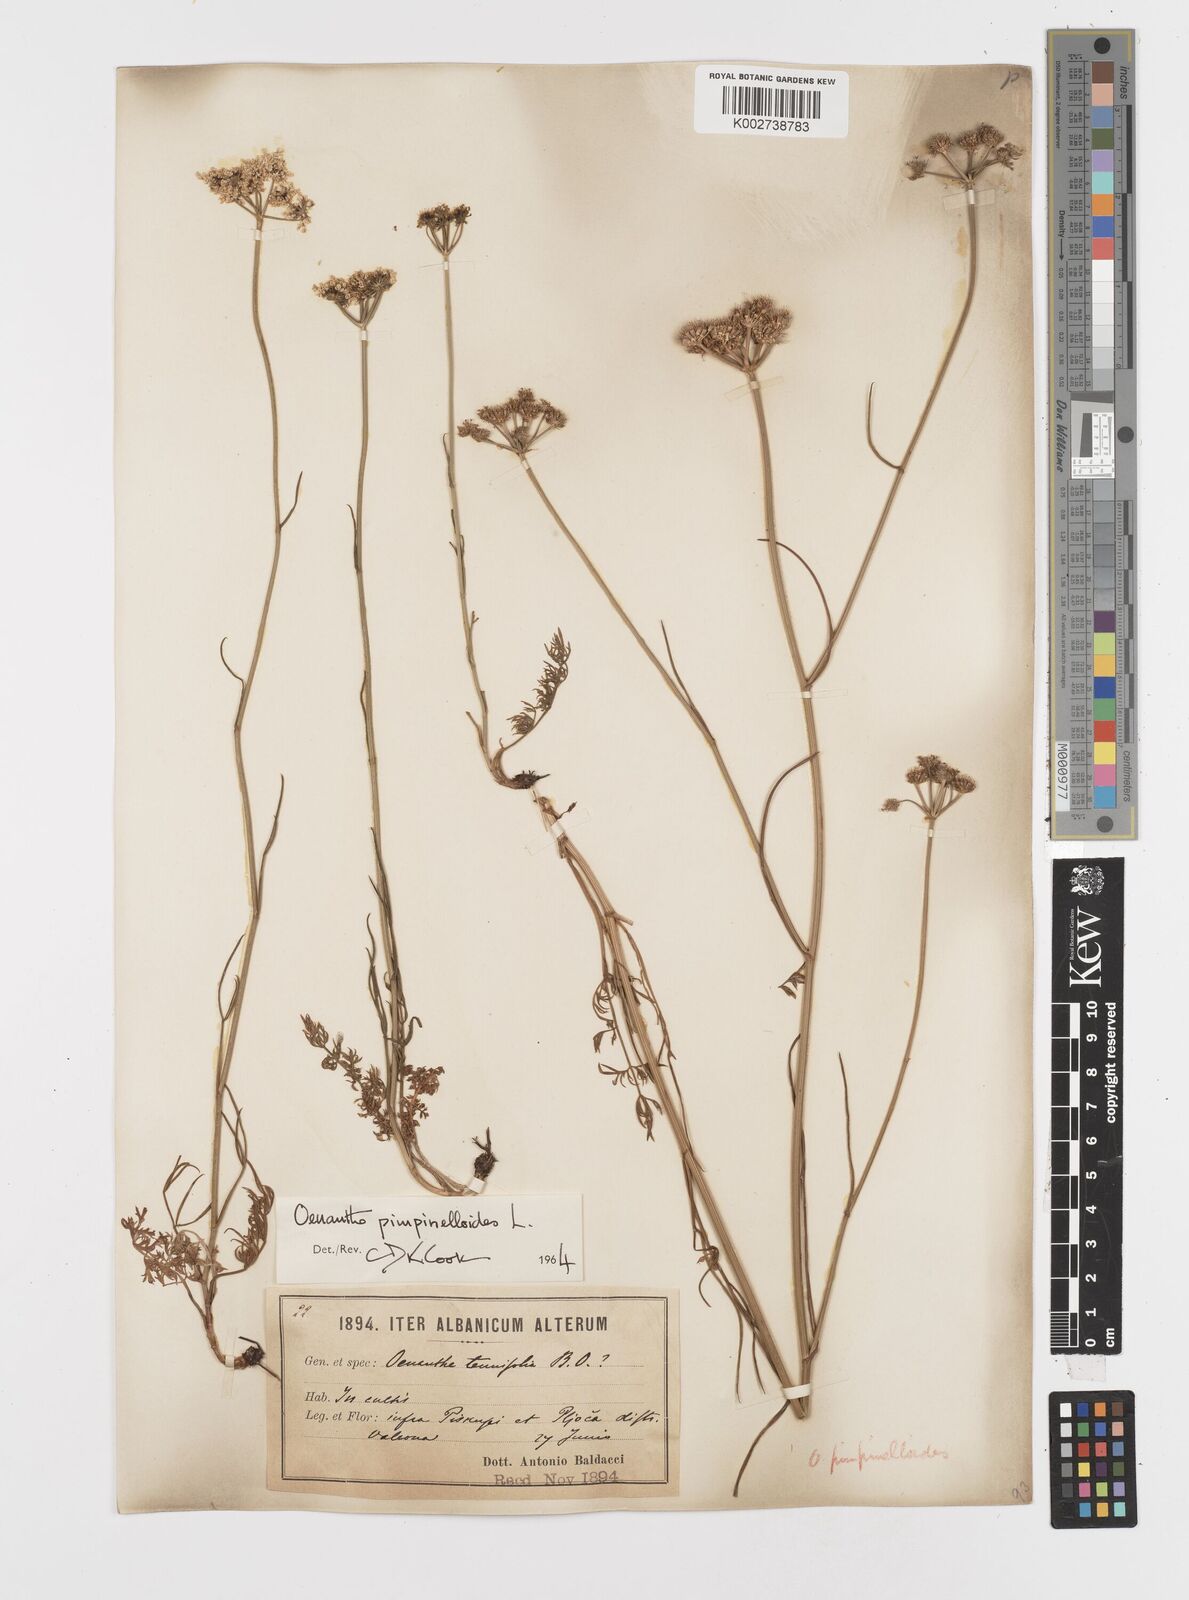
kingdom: Plantae
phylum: Tracheophyta
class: Magnoliopsida
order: Apiales
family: Apiaceae
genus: Oenanthe
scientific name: Oenanthe pimpinelloides
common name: Corky-fruited water-dropwort
